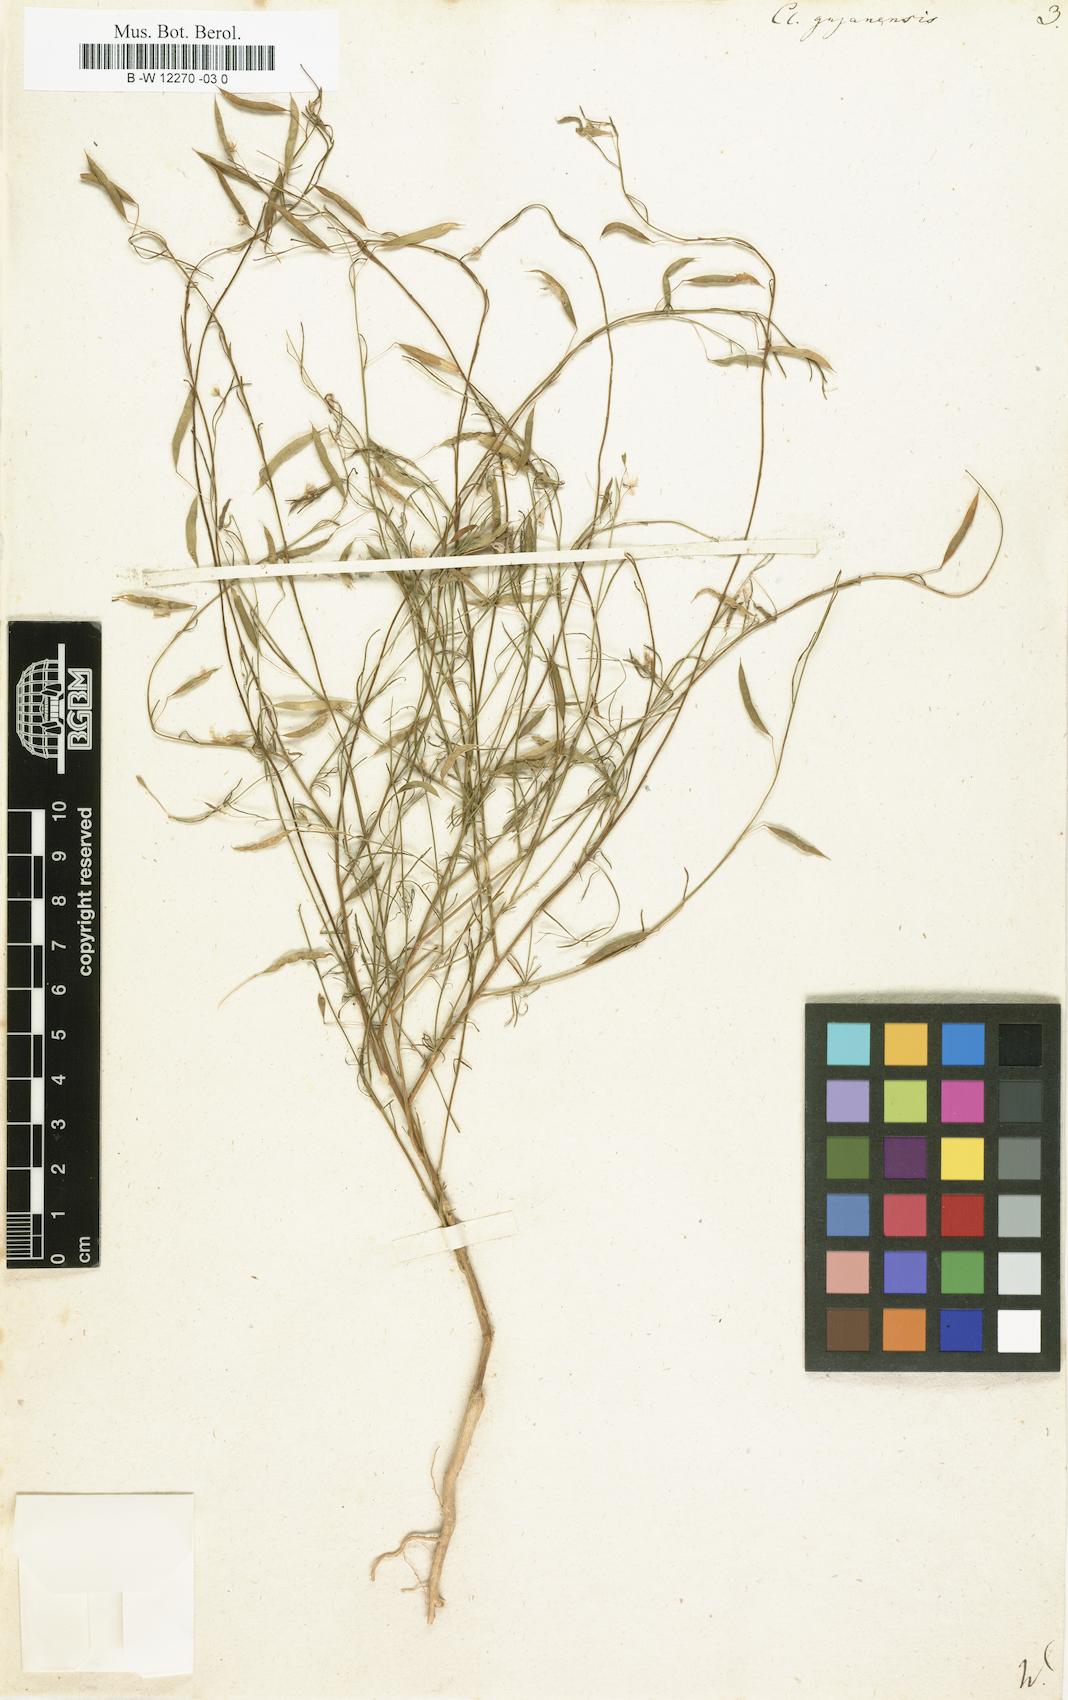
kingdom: Plantae
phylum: Tracheophyta
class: Magnoliopsida
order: Brassicales
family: Cleomaceae
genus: Physostemon
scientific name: Physostemon guianensis
